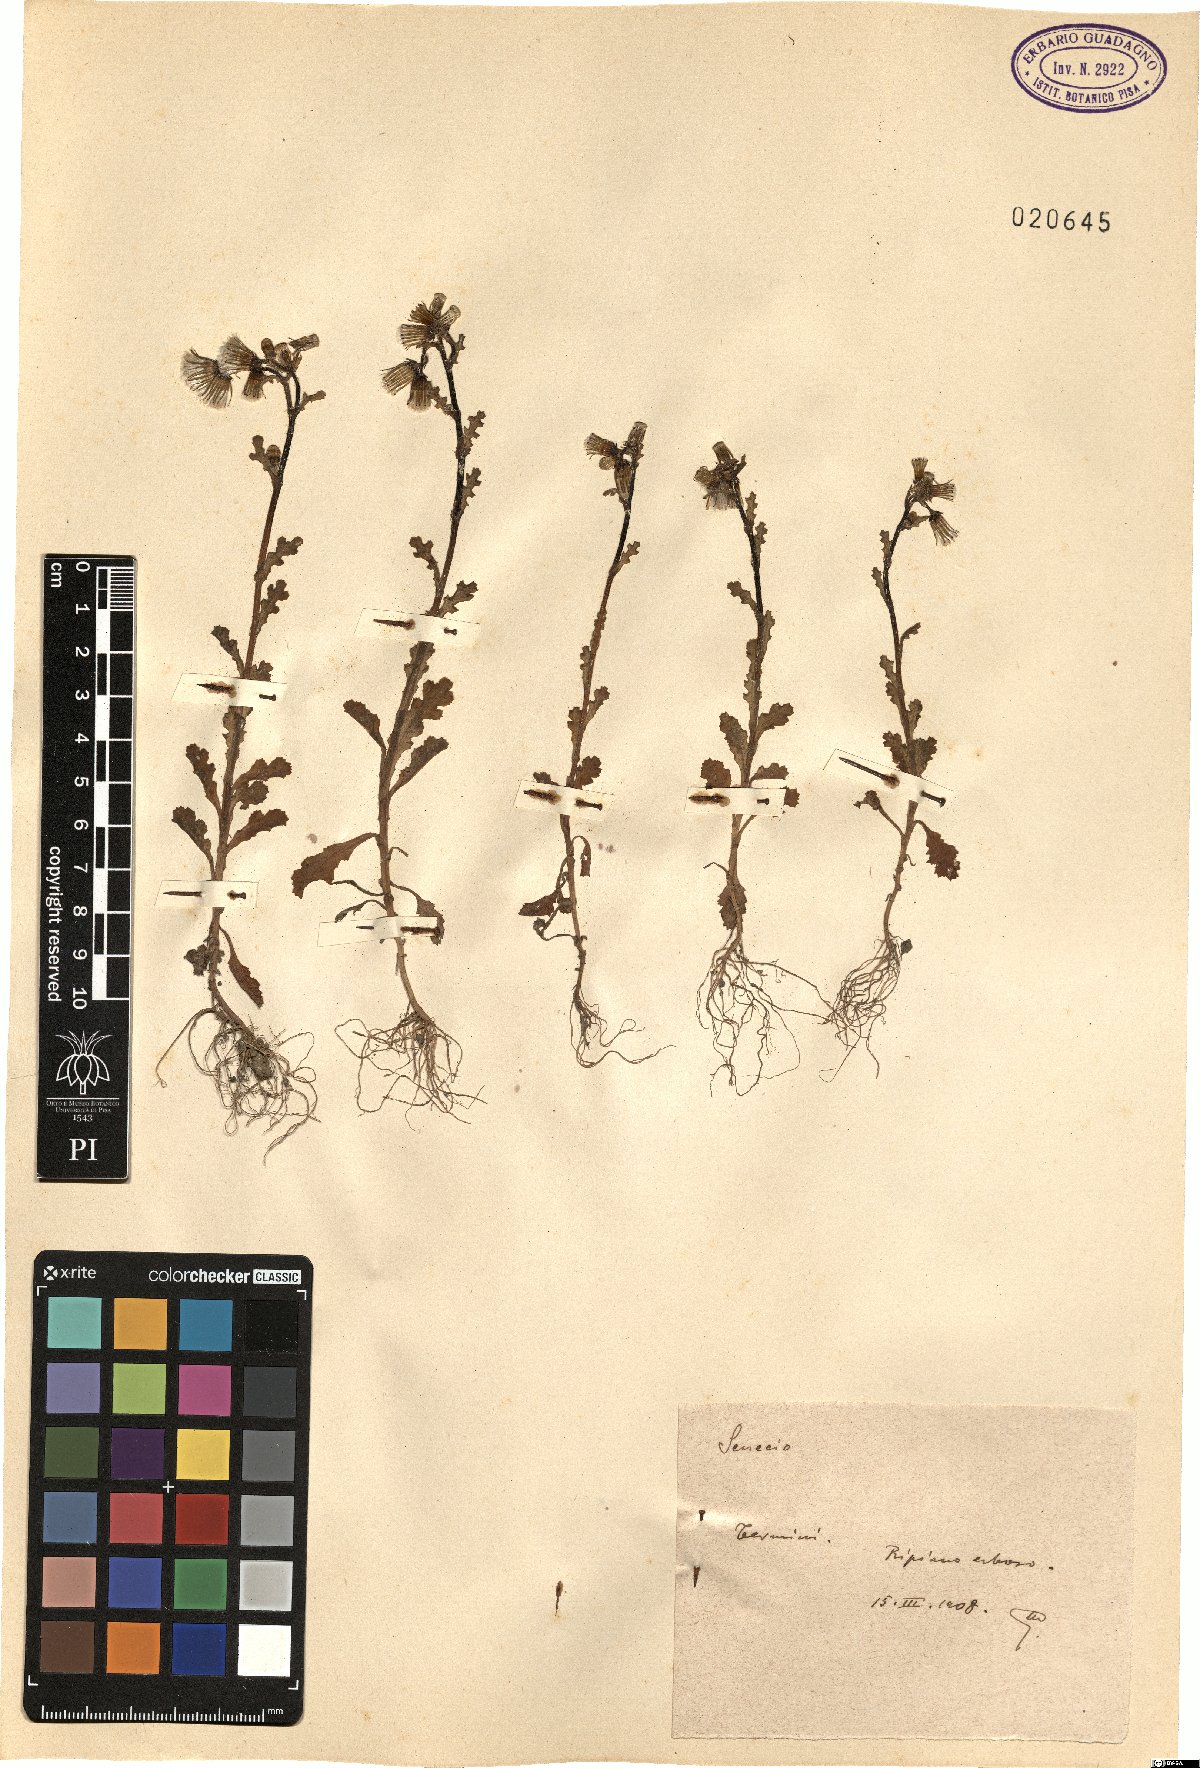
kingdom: Plantae
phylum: Tracheophyta
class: Magnoliopsida
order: Asterales
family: Asteraceae
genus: Senecio
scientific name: Senecio
